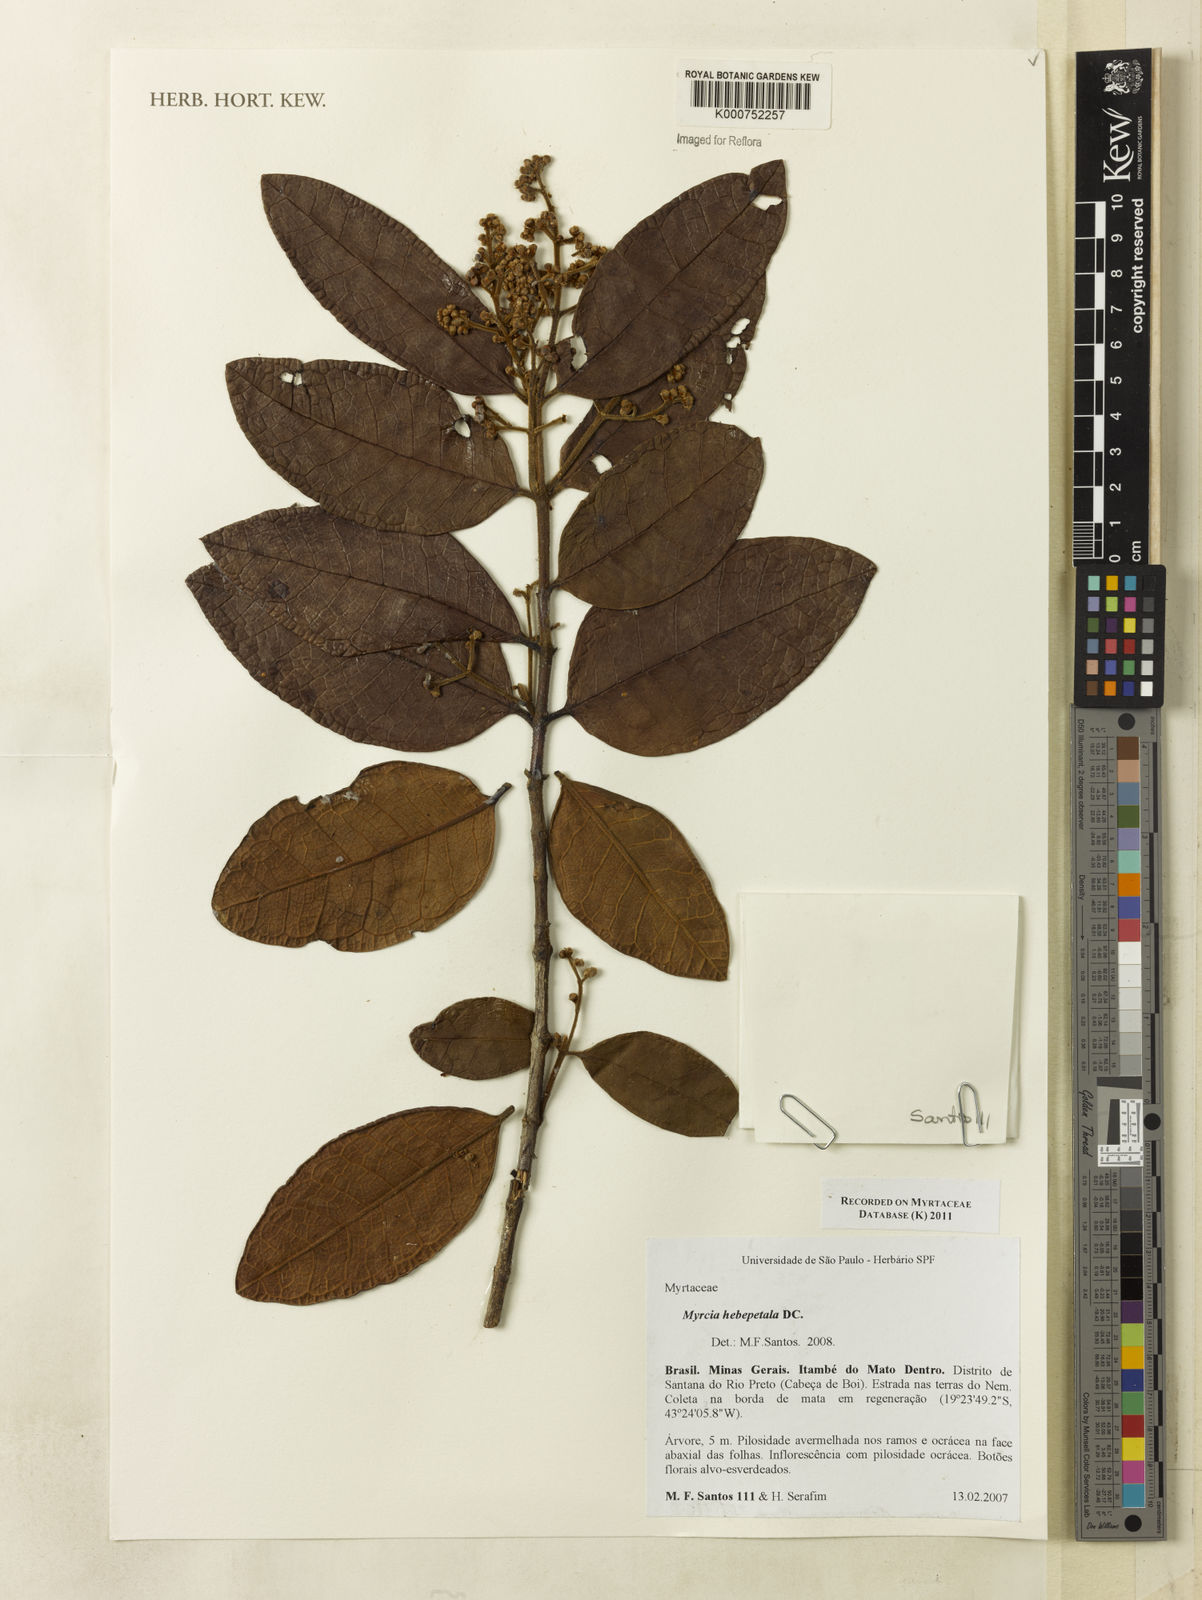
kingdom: Plantae
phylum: Tracheophyta
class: Magnoliopsida
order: Myrtales
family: Myrtaceae
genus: Myrcia
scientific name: Myrcia hebepetala
